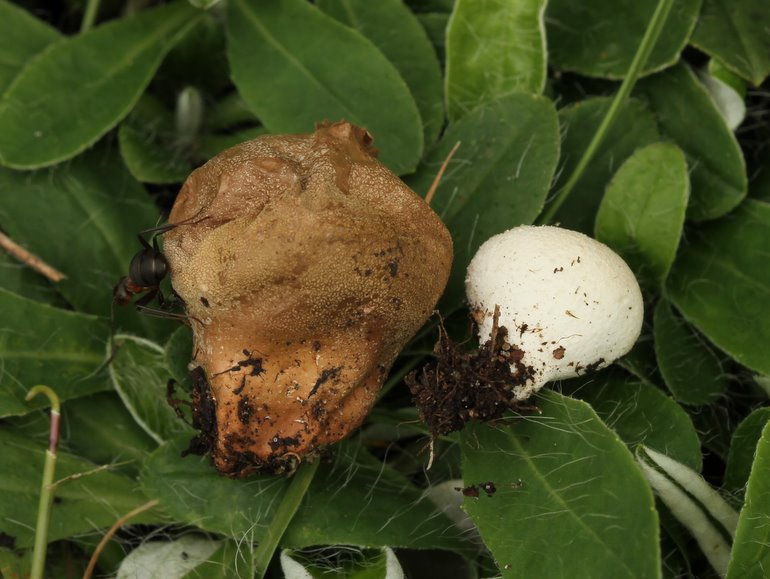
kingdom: Fungi
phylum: Basidiomycota
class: Agaricomycetes
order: Agaricales
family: Lycoperdaceae
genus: Lycoperdon
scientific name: Lycoperdon lividum
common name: mark-støvbold
